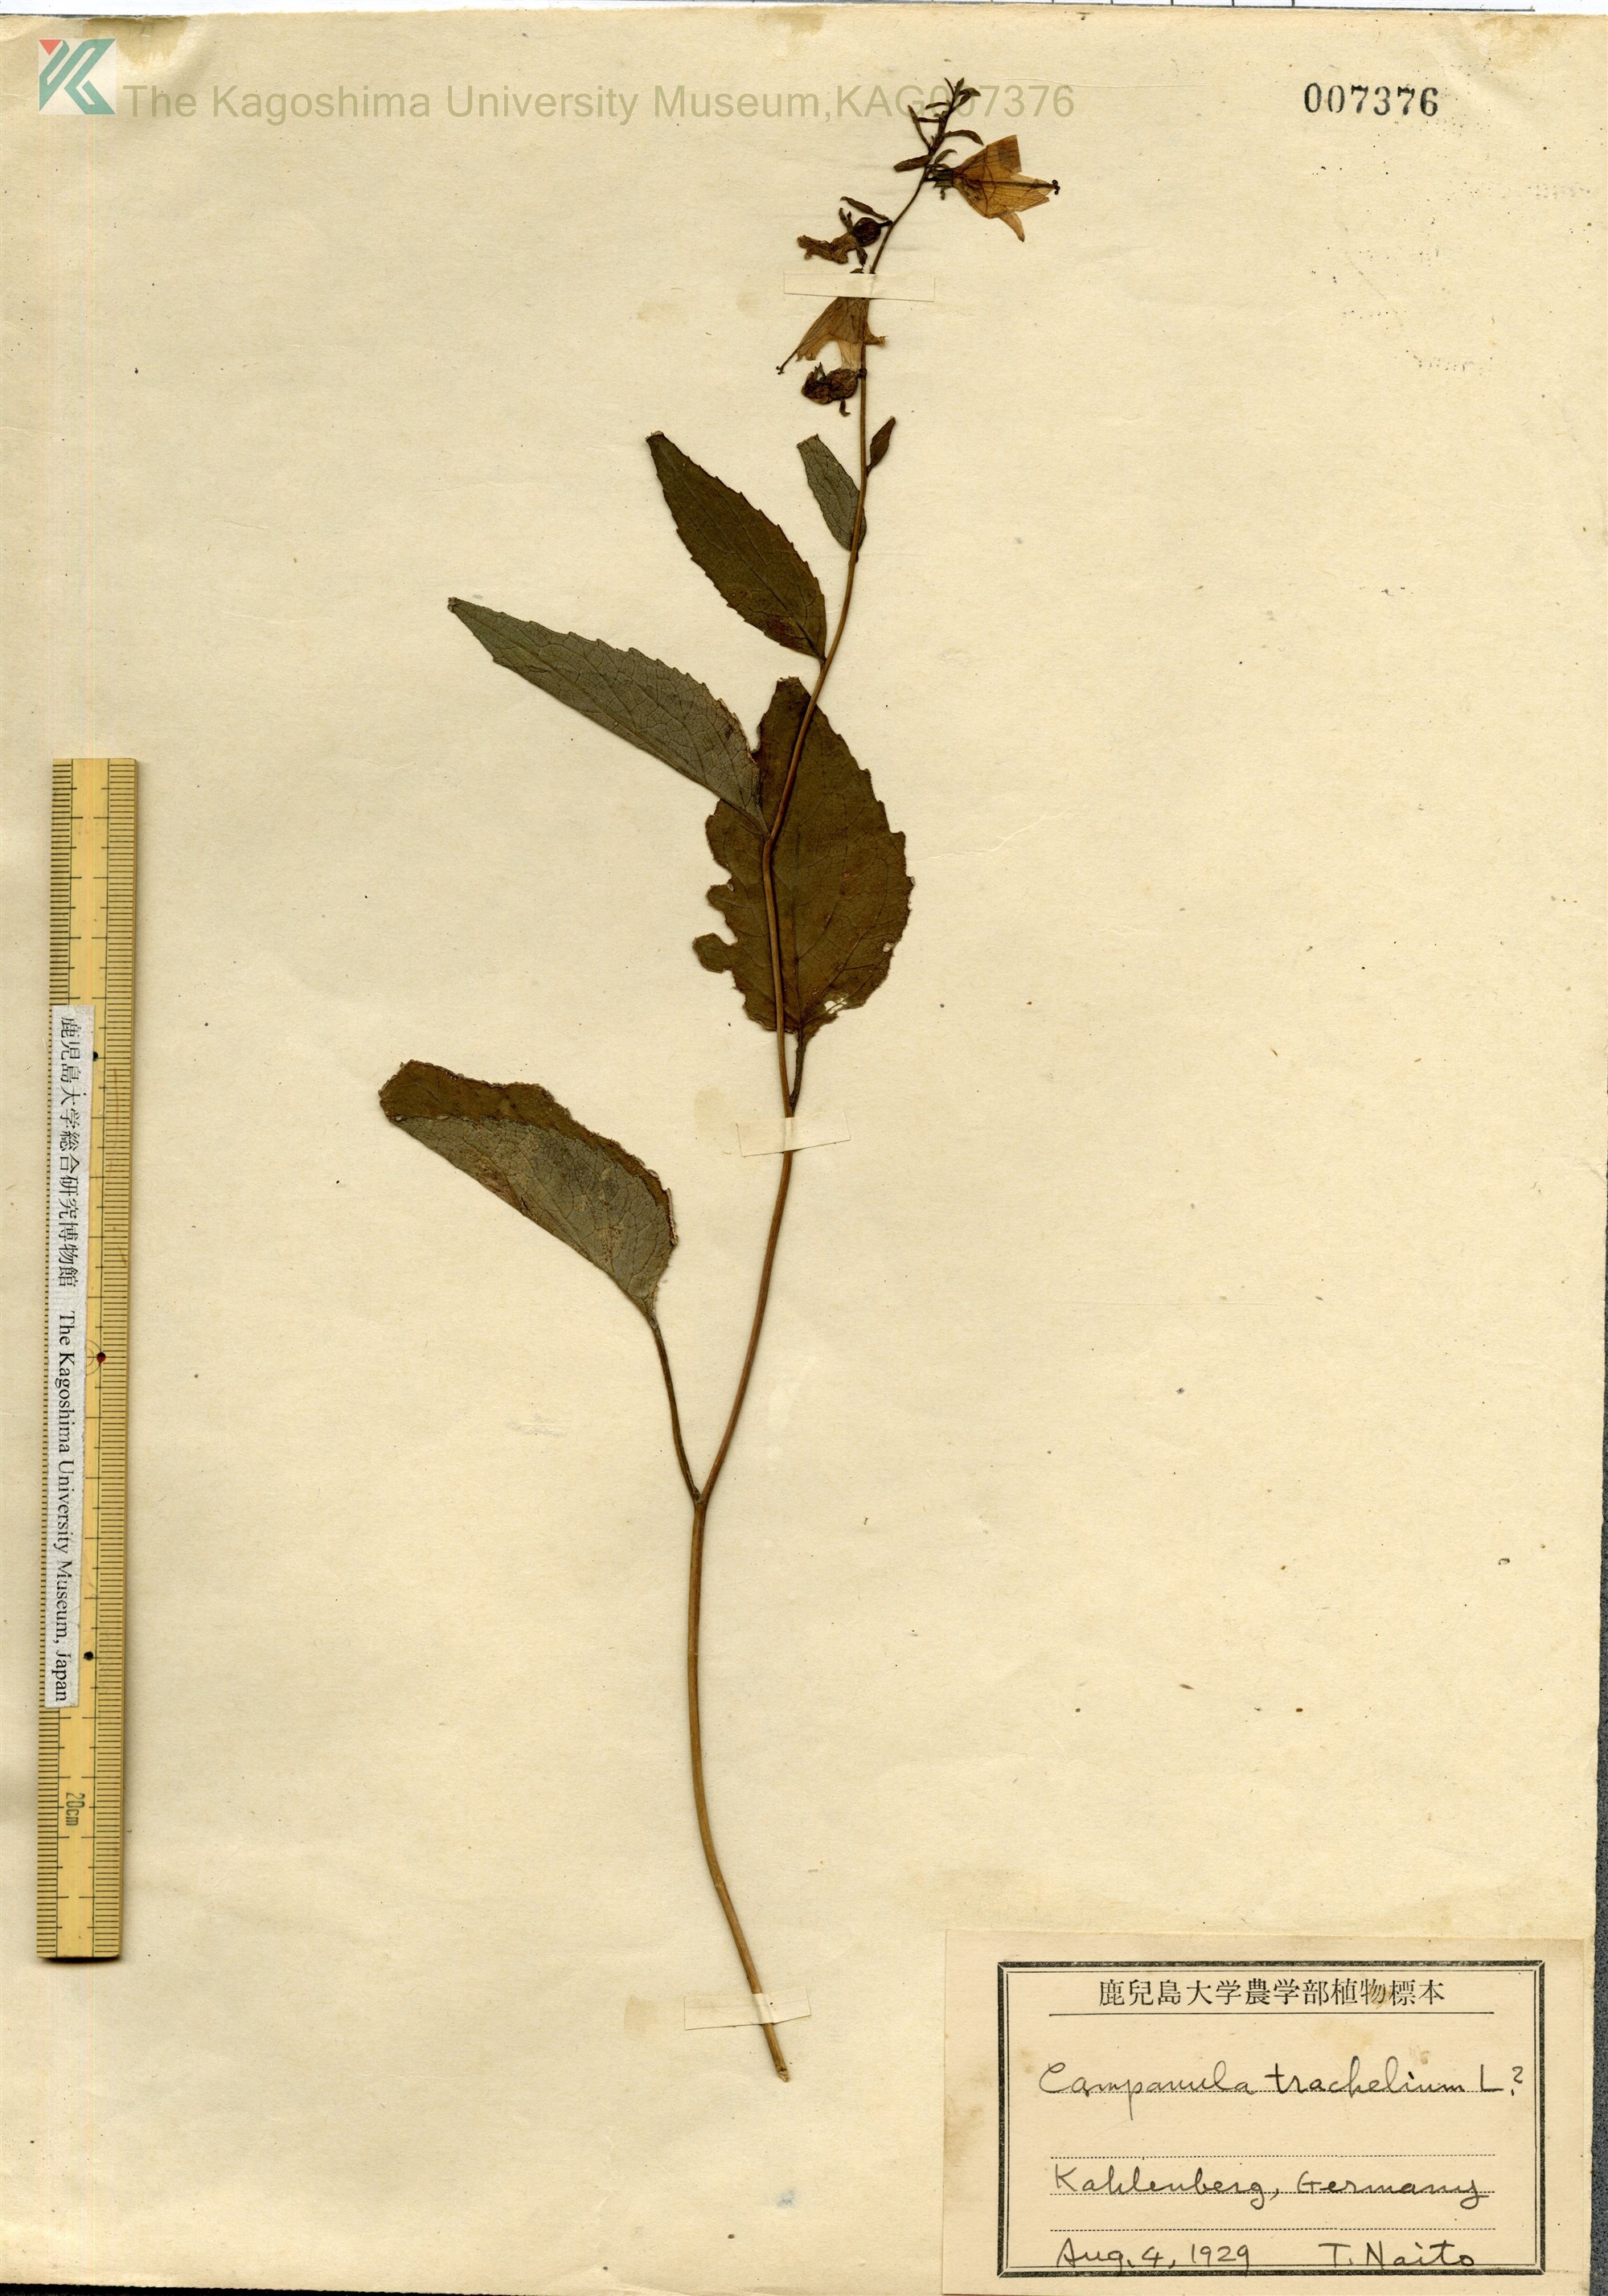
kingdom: Plantae
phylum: Tracheophyta
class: Magnoliopsida
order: Asterales
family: Campanulaceae
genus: Campanula
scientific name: Campanula trachelium
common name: Nettle-leaved bellflower
